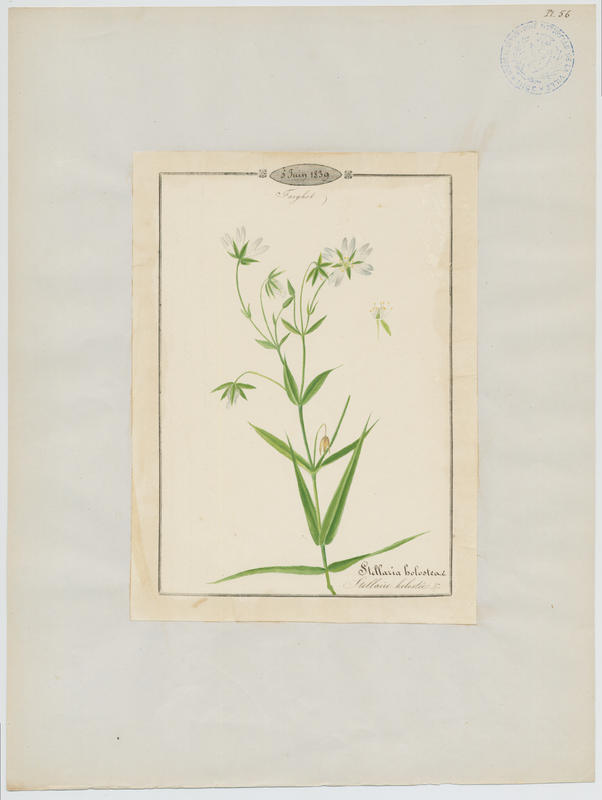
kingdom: Plantae
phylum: Tracheophyta
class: Magnoliopsida
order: Caryophyllales
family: Caryophyllaceae
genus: Rabelera
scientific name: Rabelera holostea
